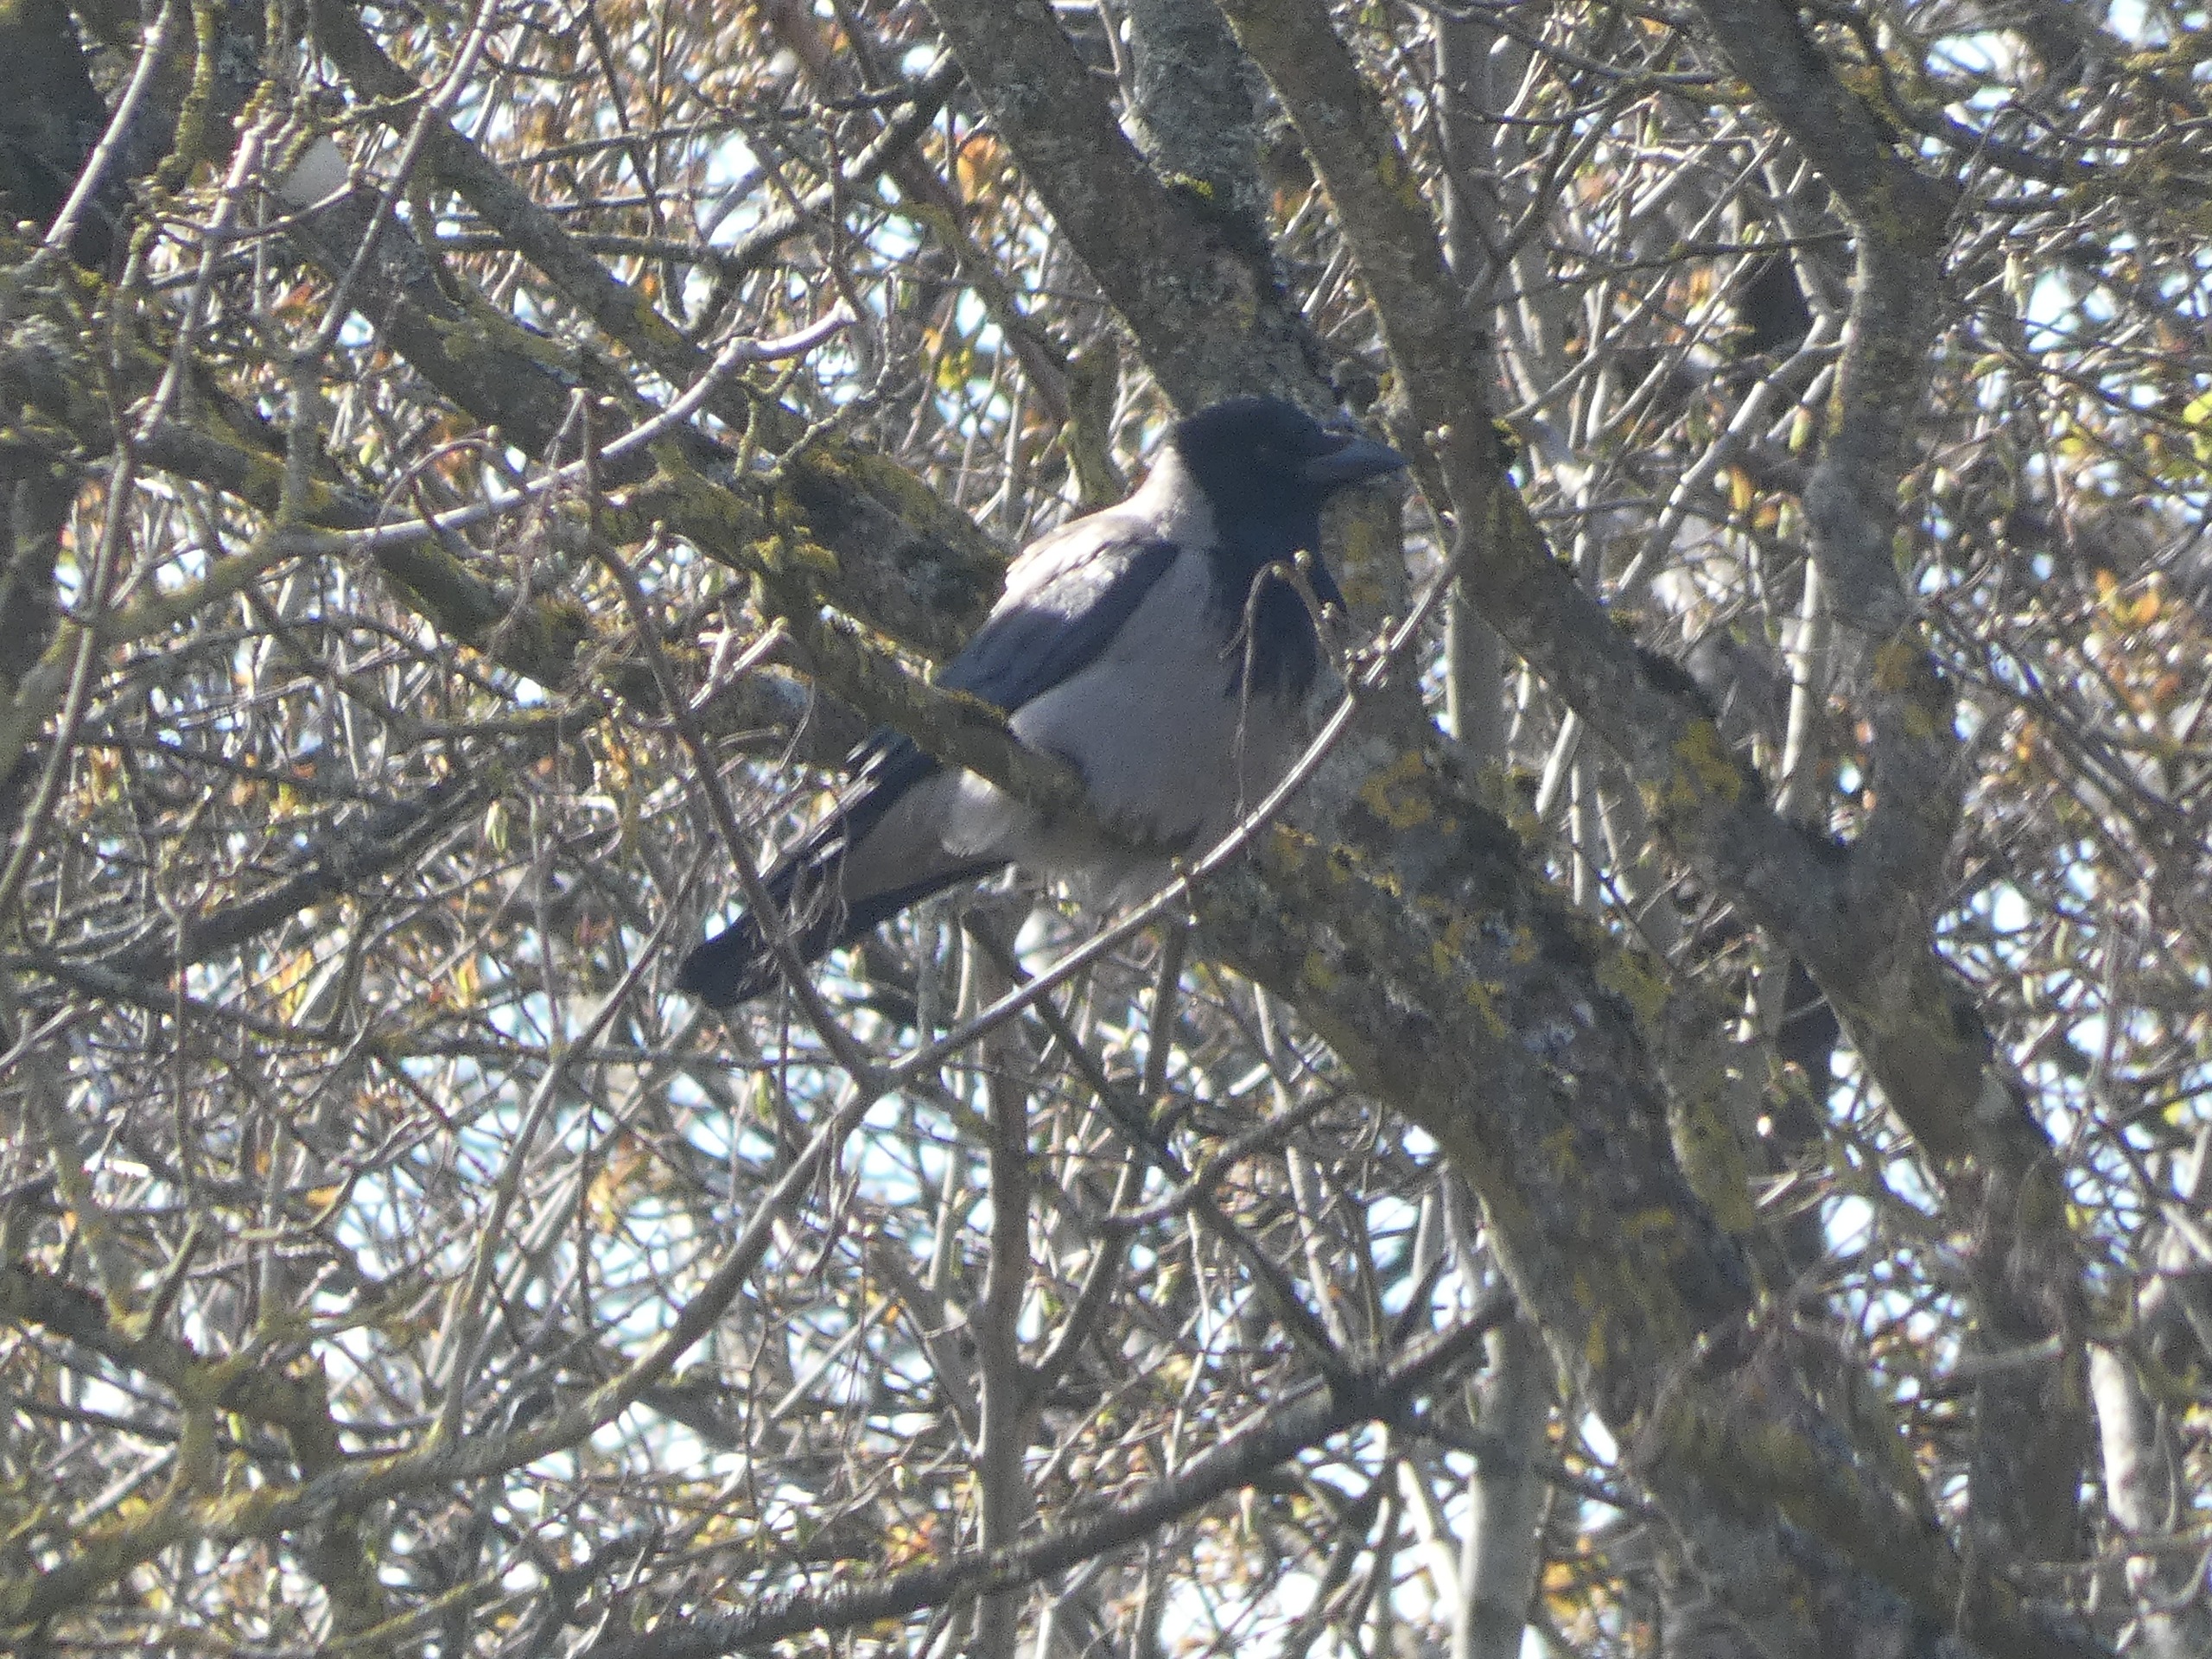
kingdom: Animalia
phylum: Chordata
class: Aves
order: Passeriformes
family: Corvidae
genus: Corvus
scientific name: Corvus cornix
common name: Gråkrage
